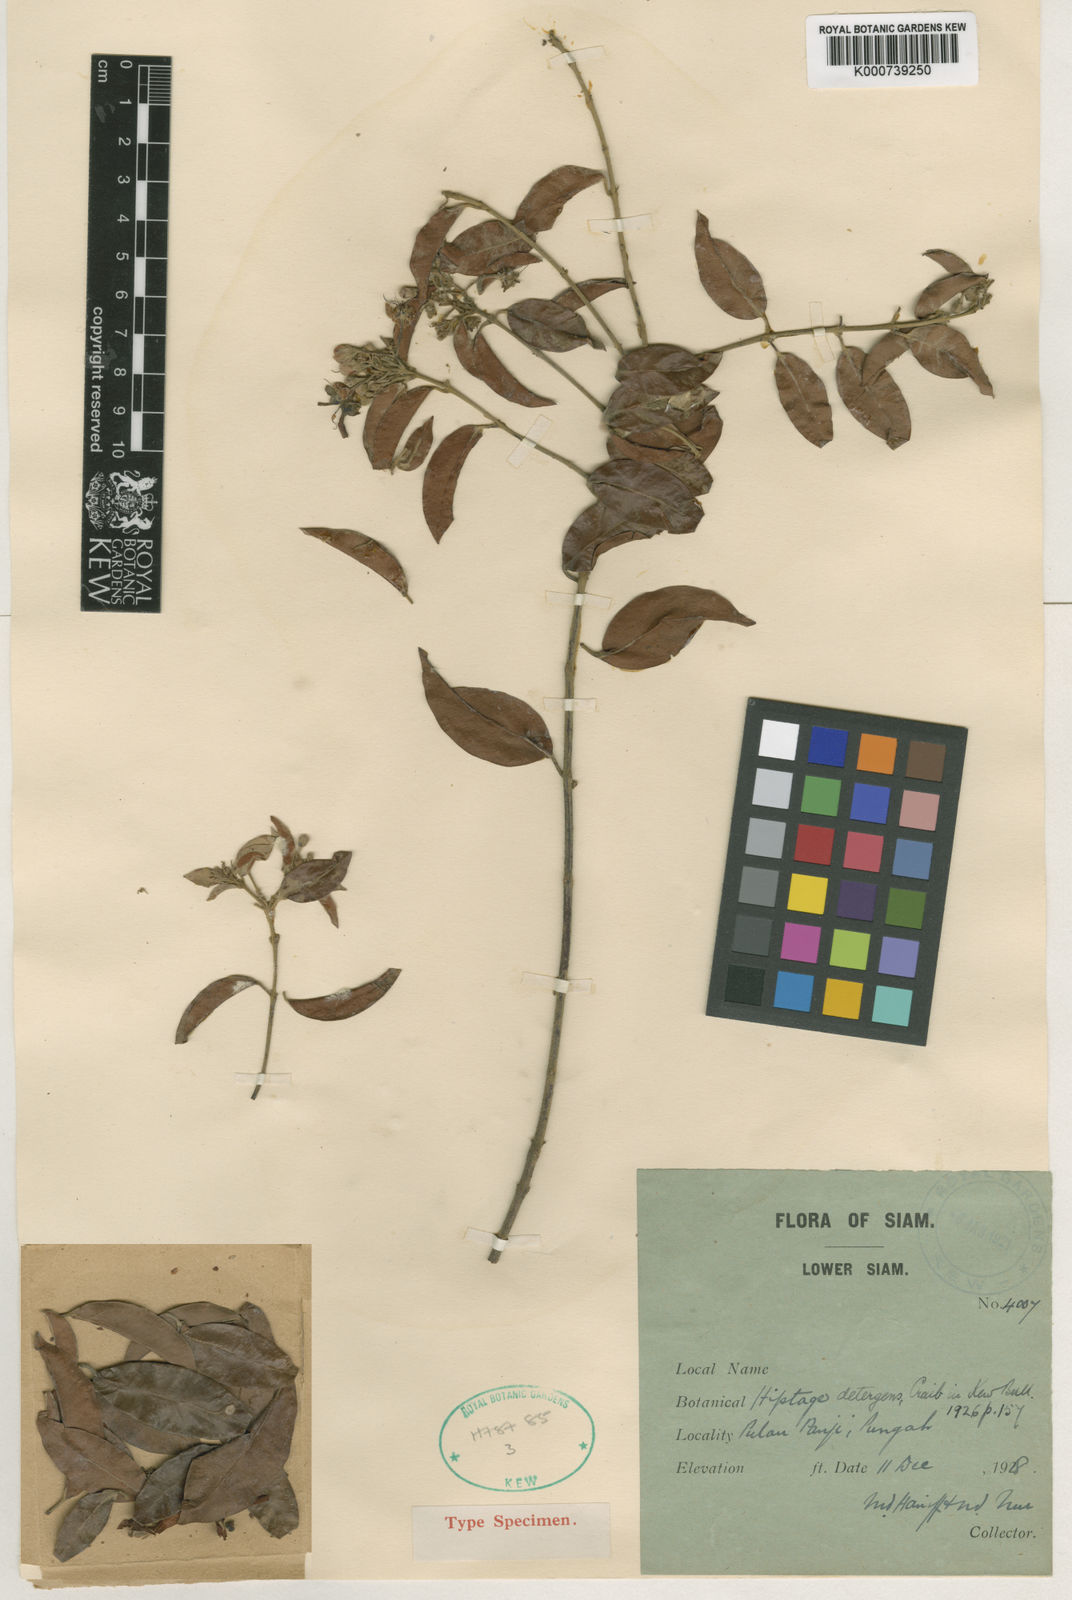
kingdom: Plantae
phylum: Tracheophyta
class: Magnoliopsida
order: Malpighiales
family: Malpighiaceae
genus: Hiptage
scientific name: Hiptage detergens
